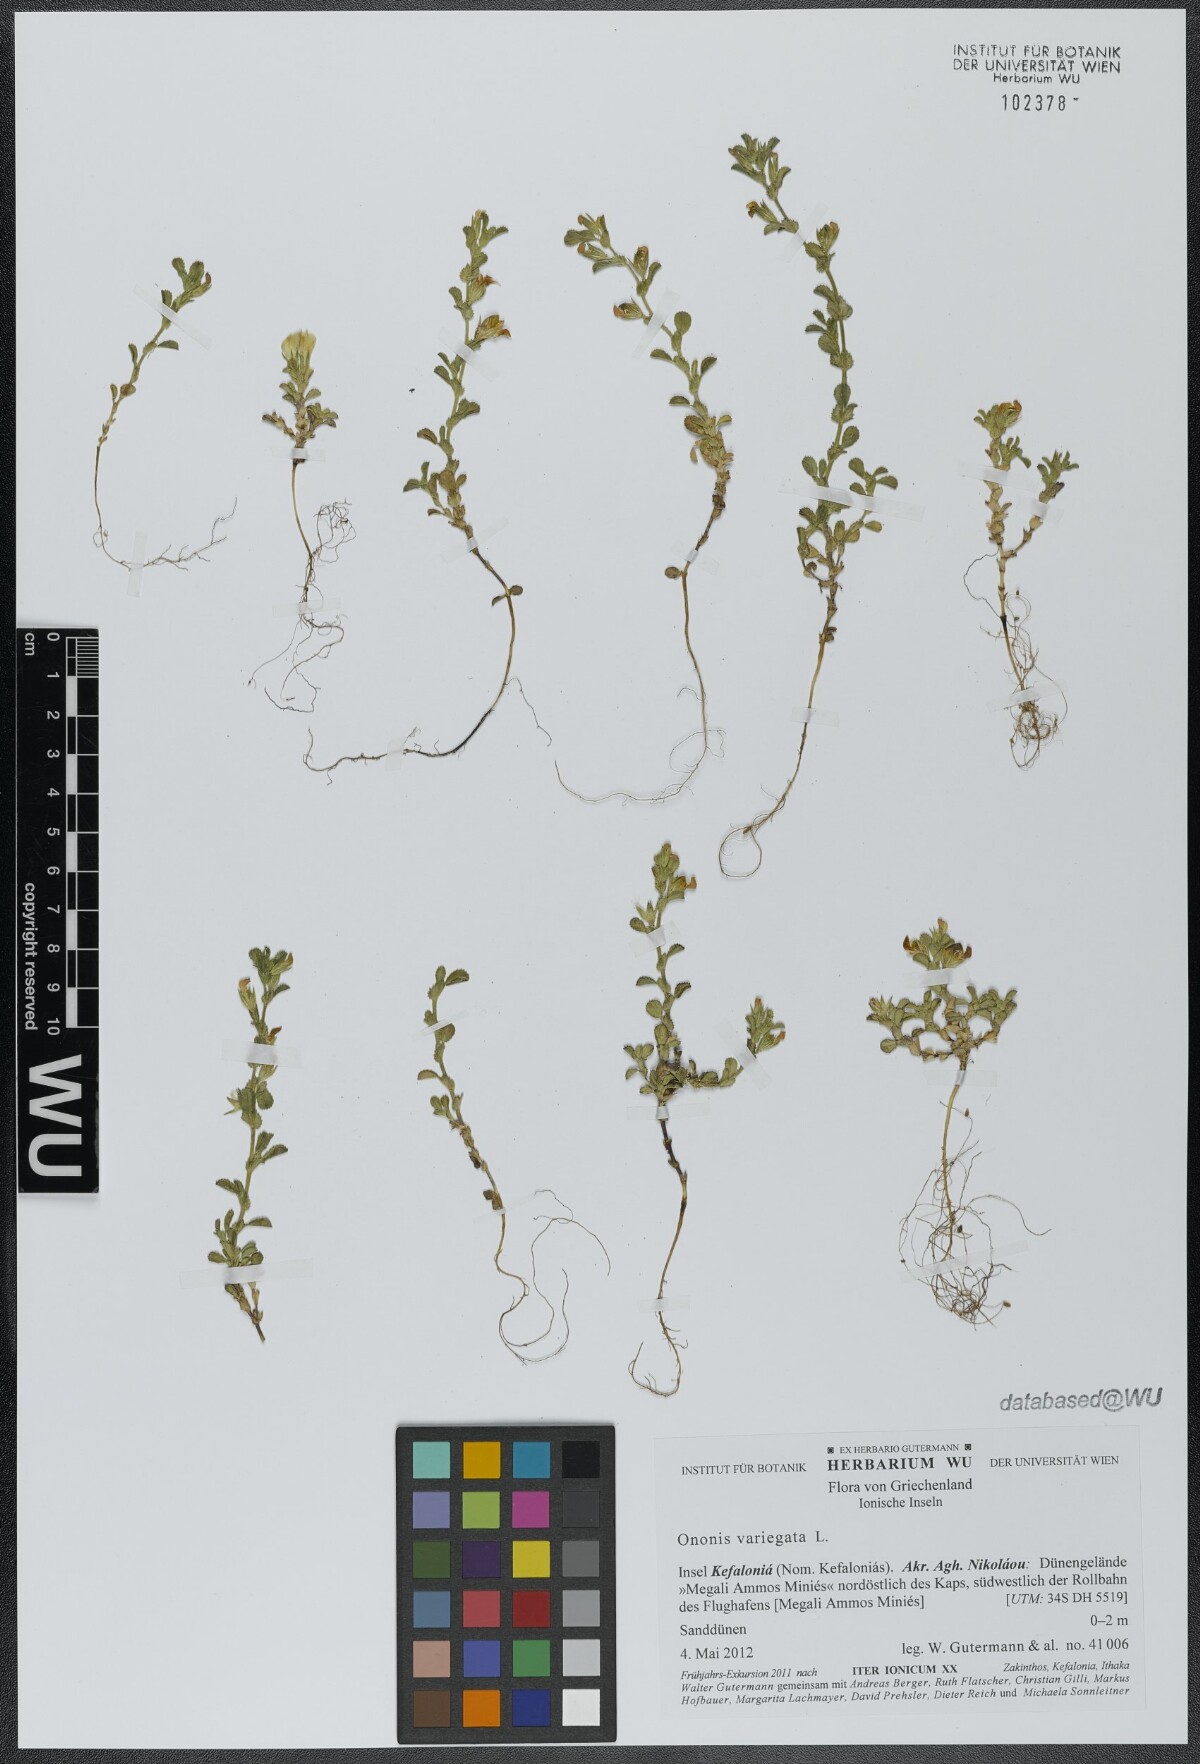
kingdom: Plantae
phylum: Tracheophyta
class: Magnoliopsida
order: Fabales
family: Fabaceae
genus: Ononis
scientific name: Ononis variegata
